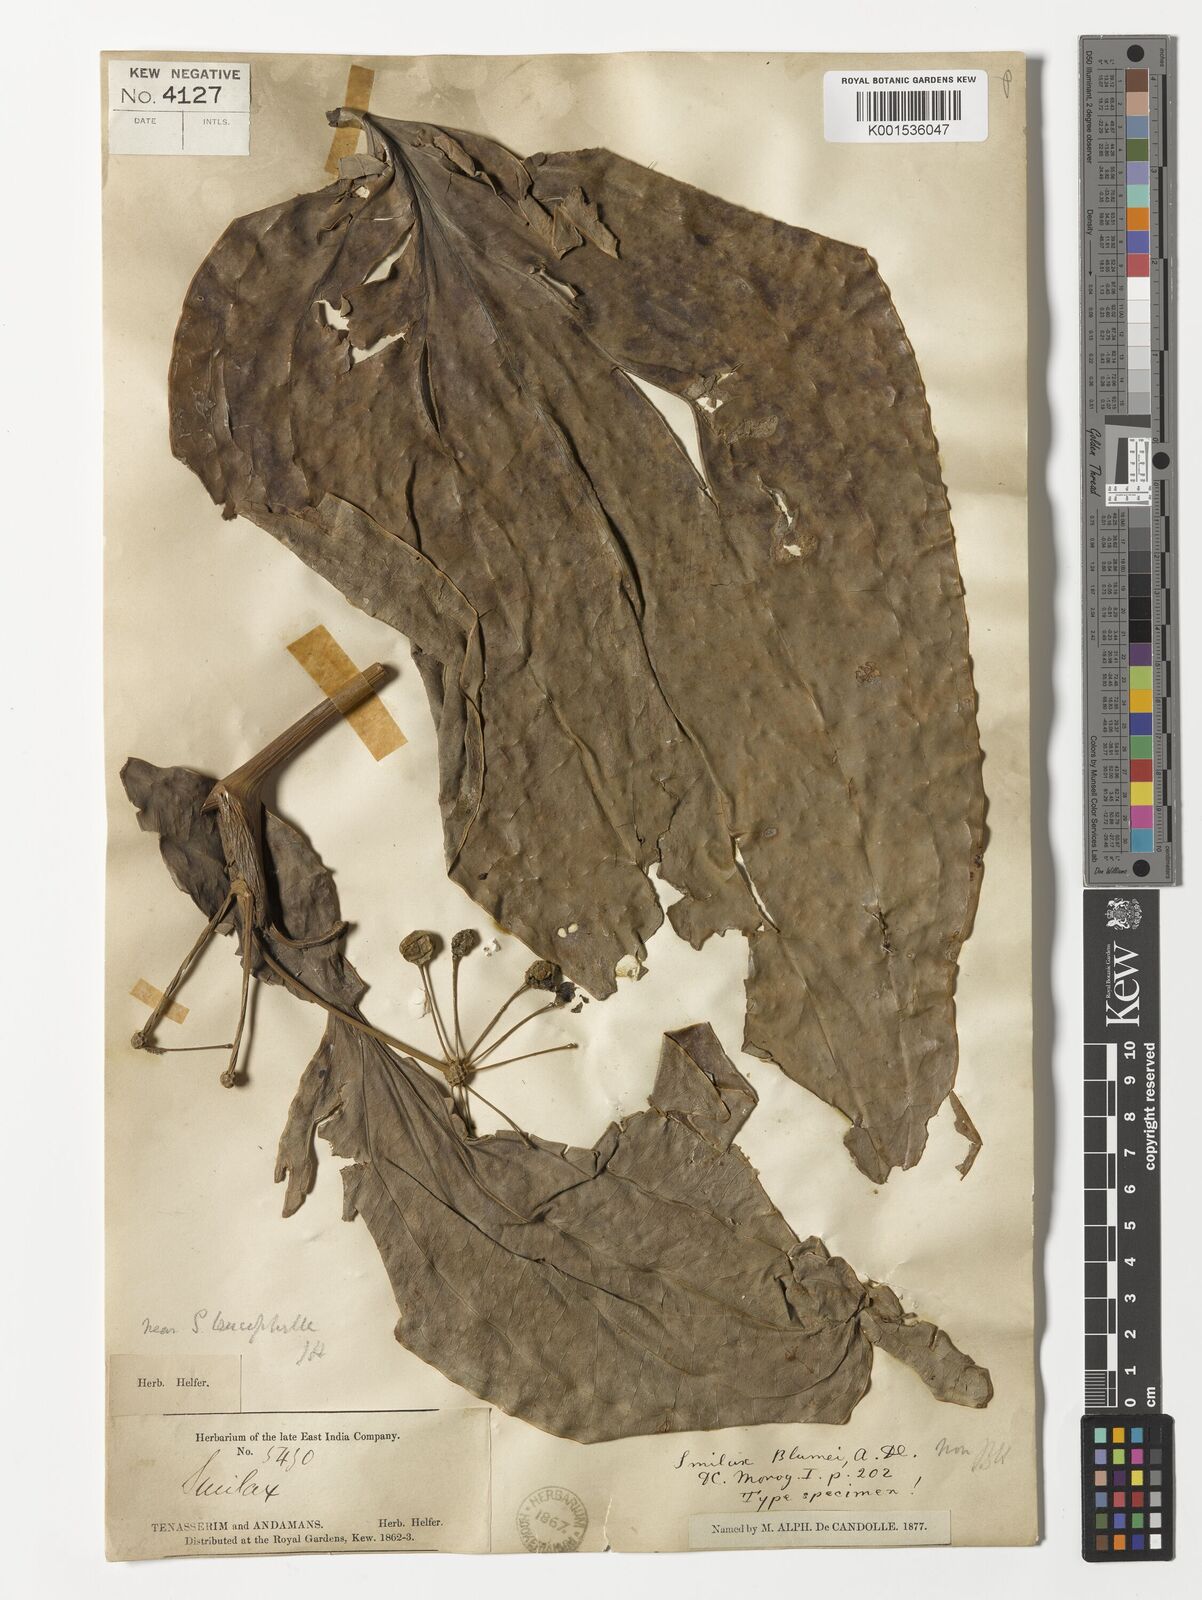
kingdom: Plantae
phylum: Tracheophyta
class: Liliopsida
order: Liliales
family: Smilacaceae
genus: Smilax
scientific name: Smilax leucophylla
